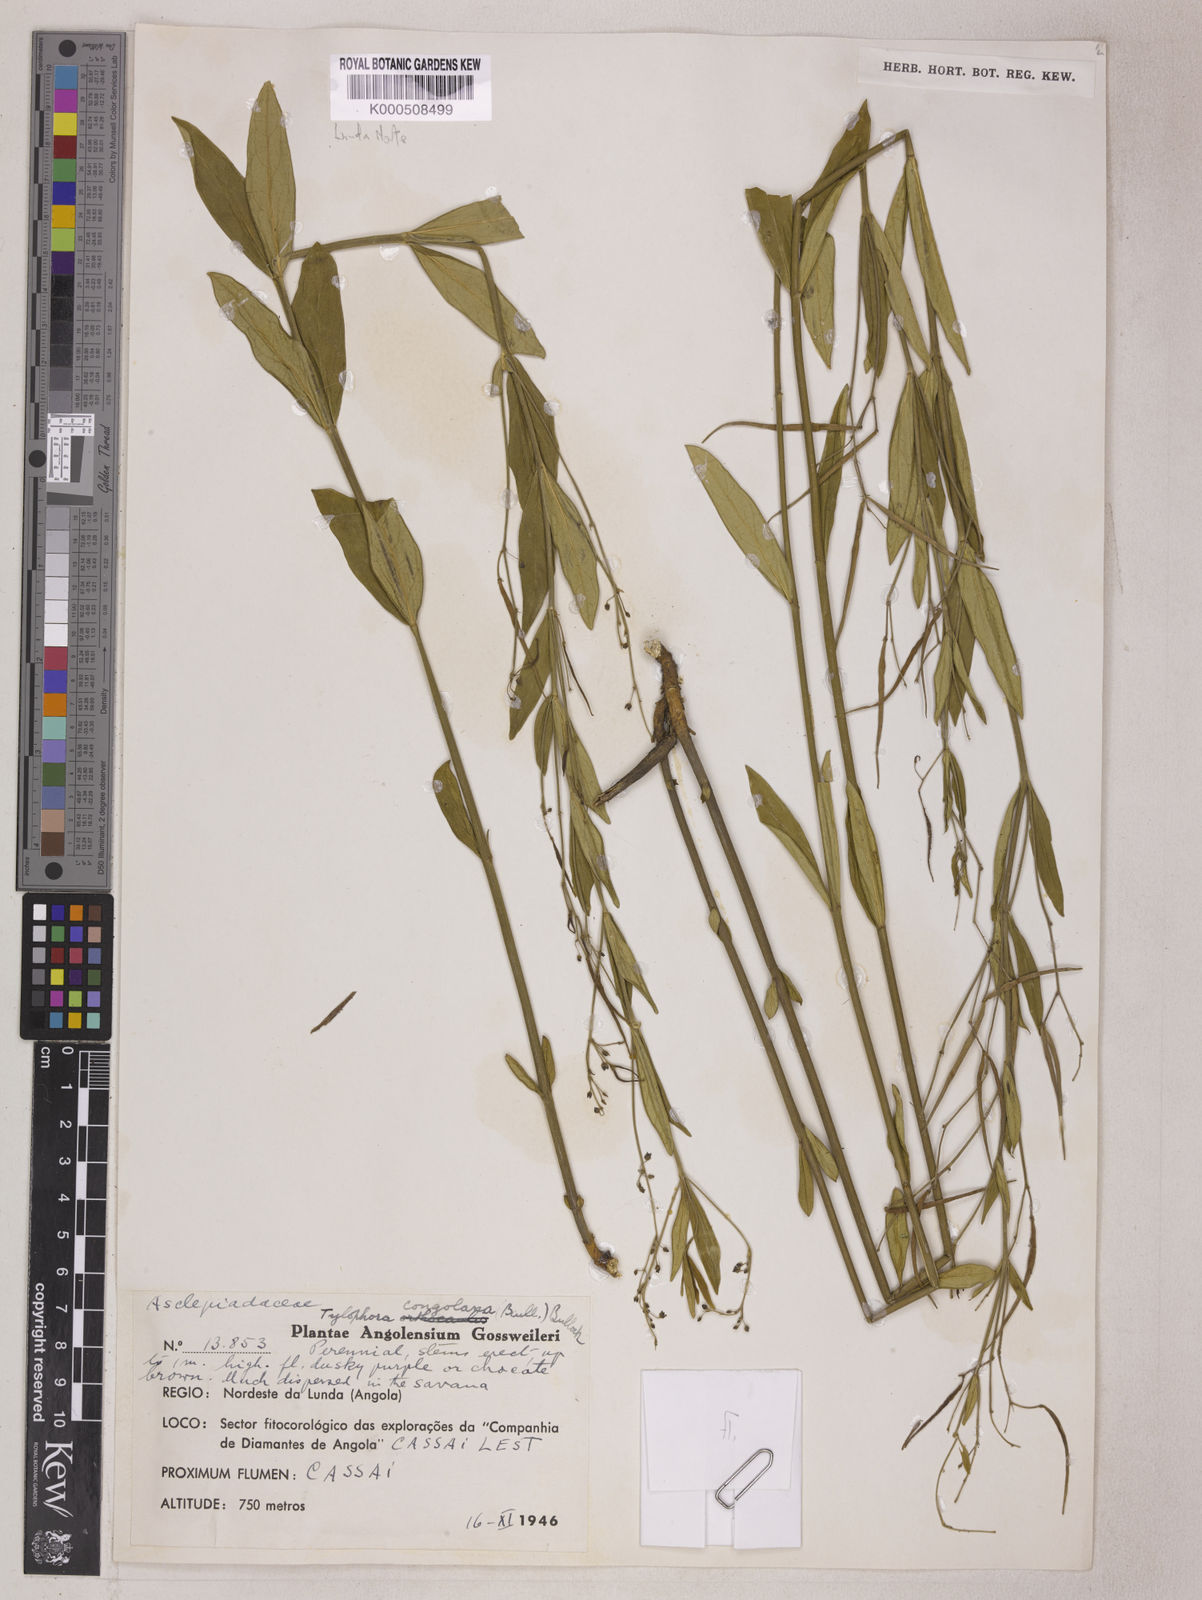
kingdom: Plantae
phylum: Tracheophyta
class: Magnoliopsida
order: Gentianales
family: Apocynaceae
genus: Vincetoxicum
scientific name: Vincetoxicum congolanum
